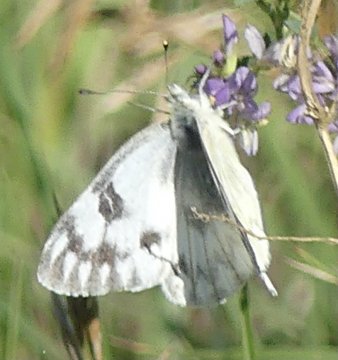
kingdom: Animalia
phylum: Arthropoda
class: Insecta
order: Lepidoptera
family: Pieridae
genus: Pontia
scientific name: Pontia occidentalis
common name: Western White
